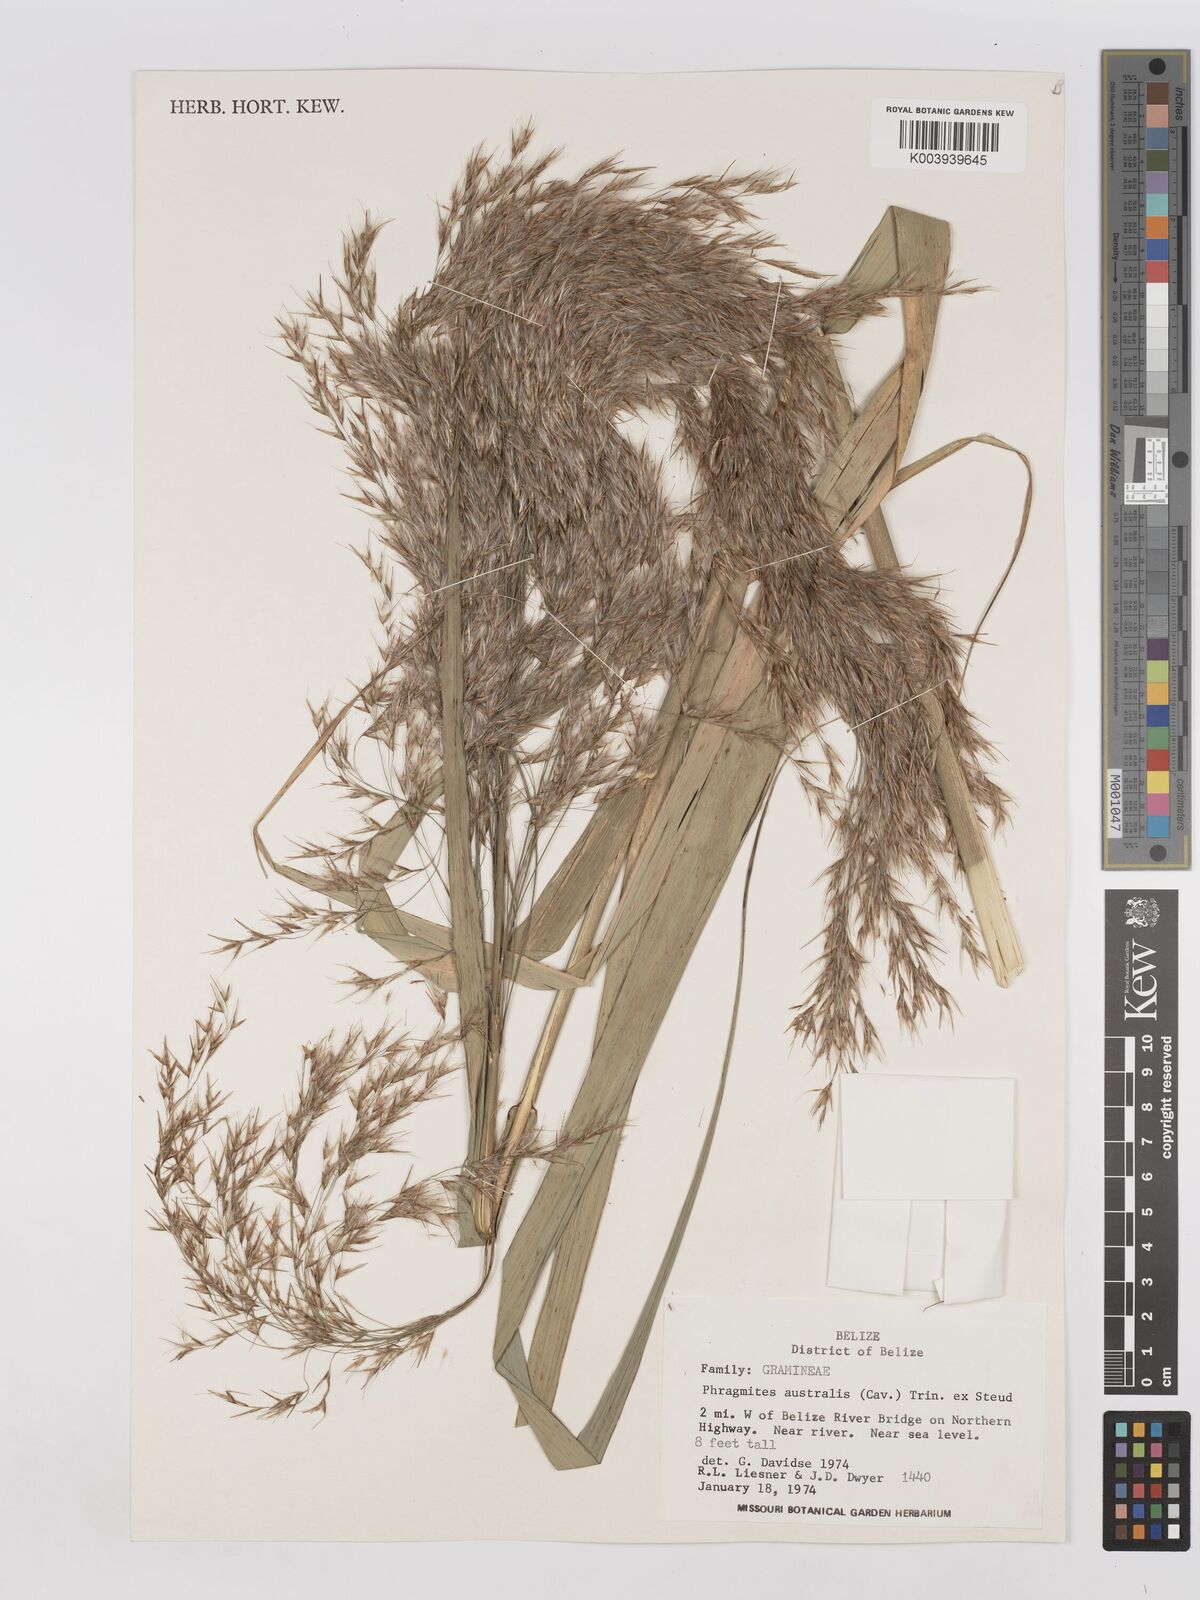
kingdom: Plantae
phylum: Tracheophyta
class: Liliopsida
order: Poales
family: Poaceae
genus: Phragmites
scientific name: Phragmites australis
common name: Common reed
